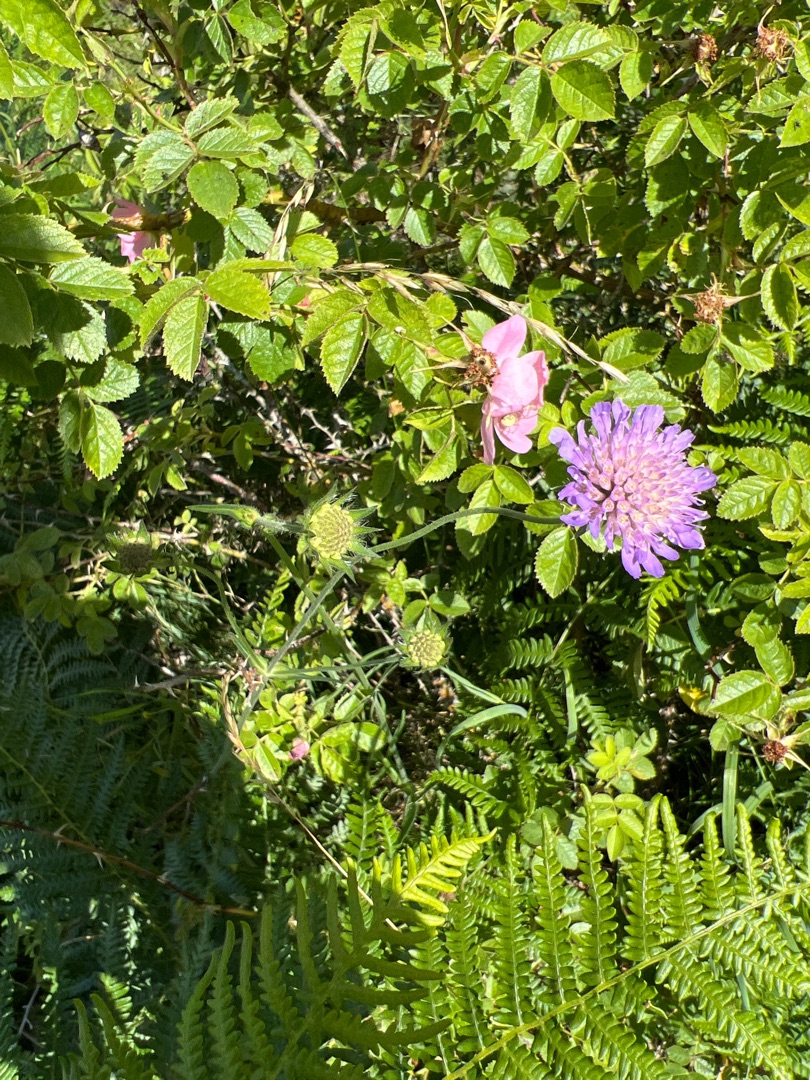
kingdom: Plantae
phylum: Tracheophyta
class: Magnoliopsida
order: Dipsacales
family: Caprifoliaceae
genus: Knautia
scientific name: Knautia arvensis
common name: Blåhat
